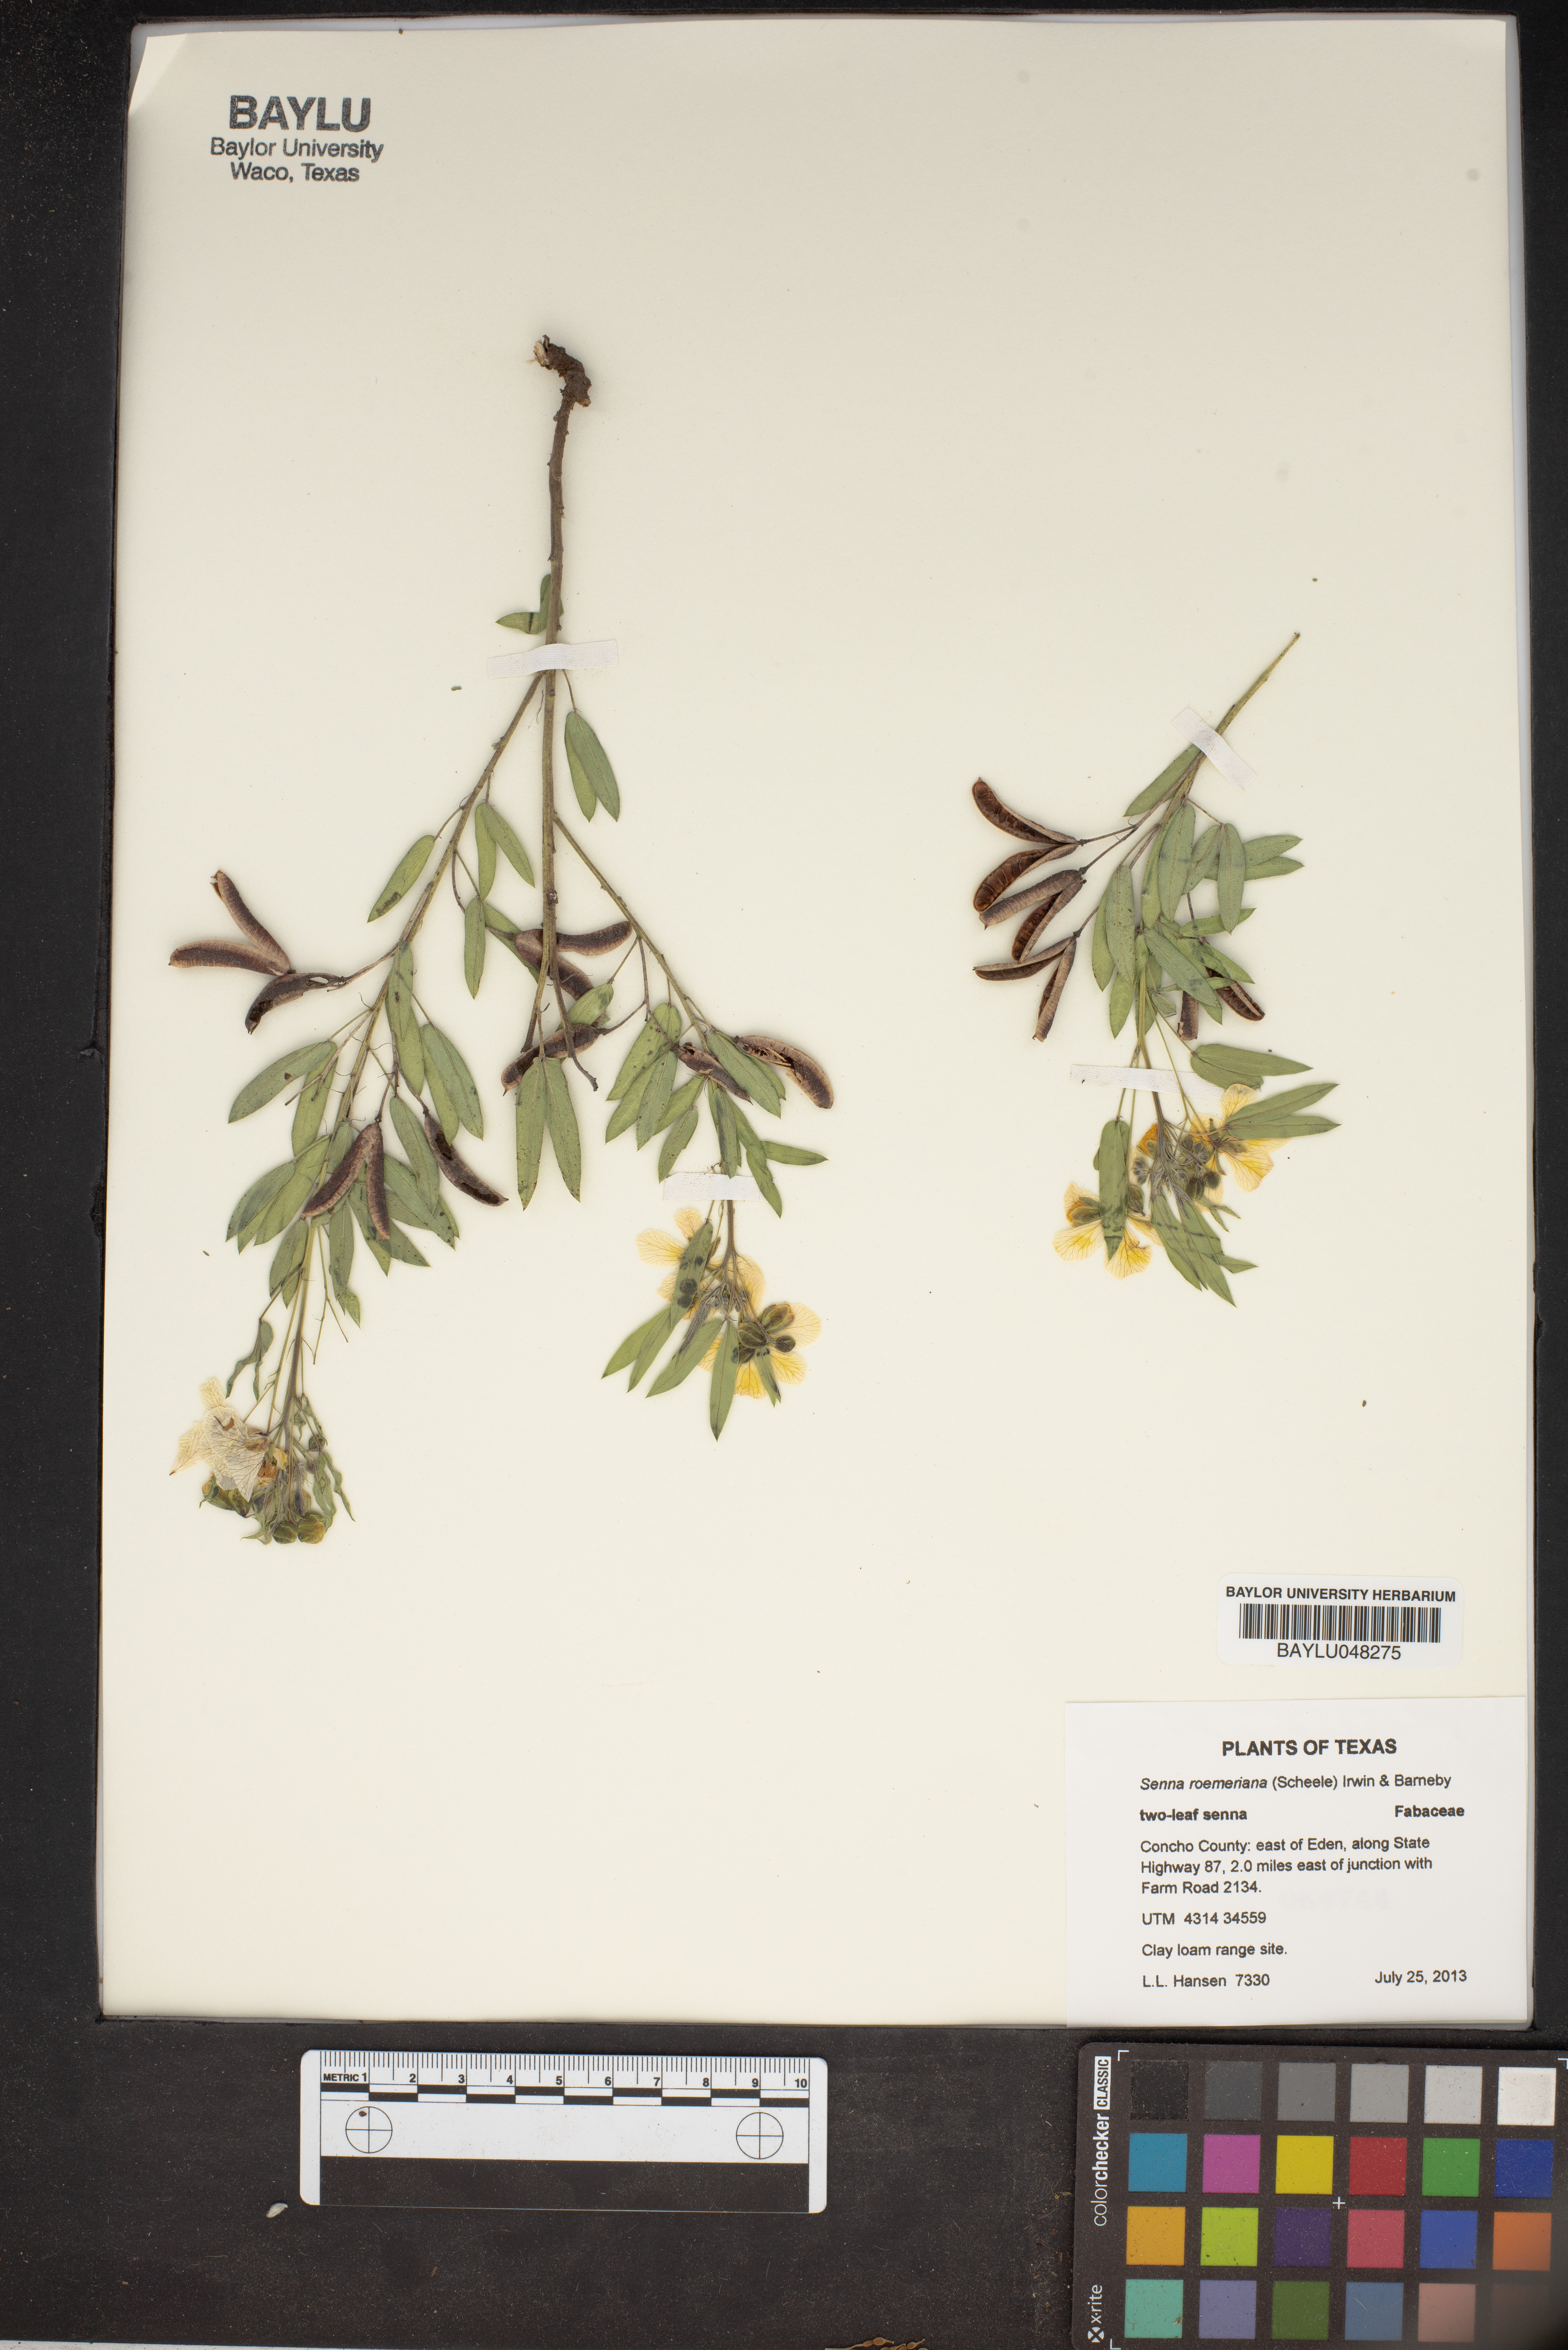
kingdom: Plantae
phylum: Tracheophyta
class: Magnoliopsida
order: Fabales
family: Fabaceae
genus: Senna
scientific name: Senna roemeriana
